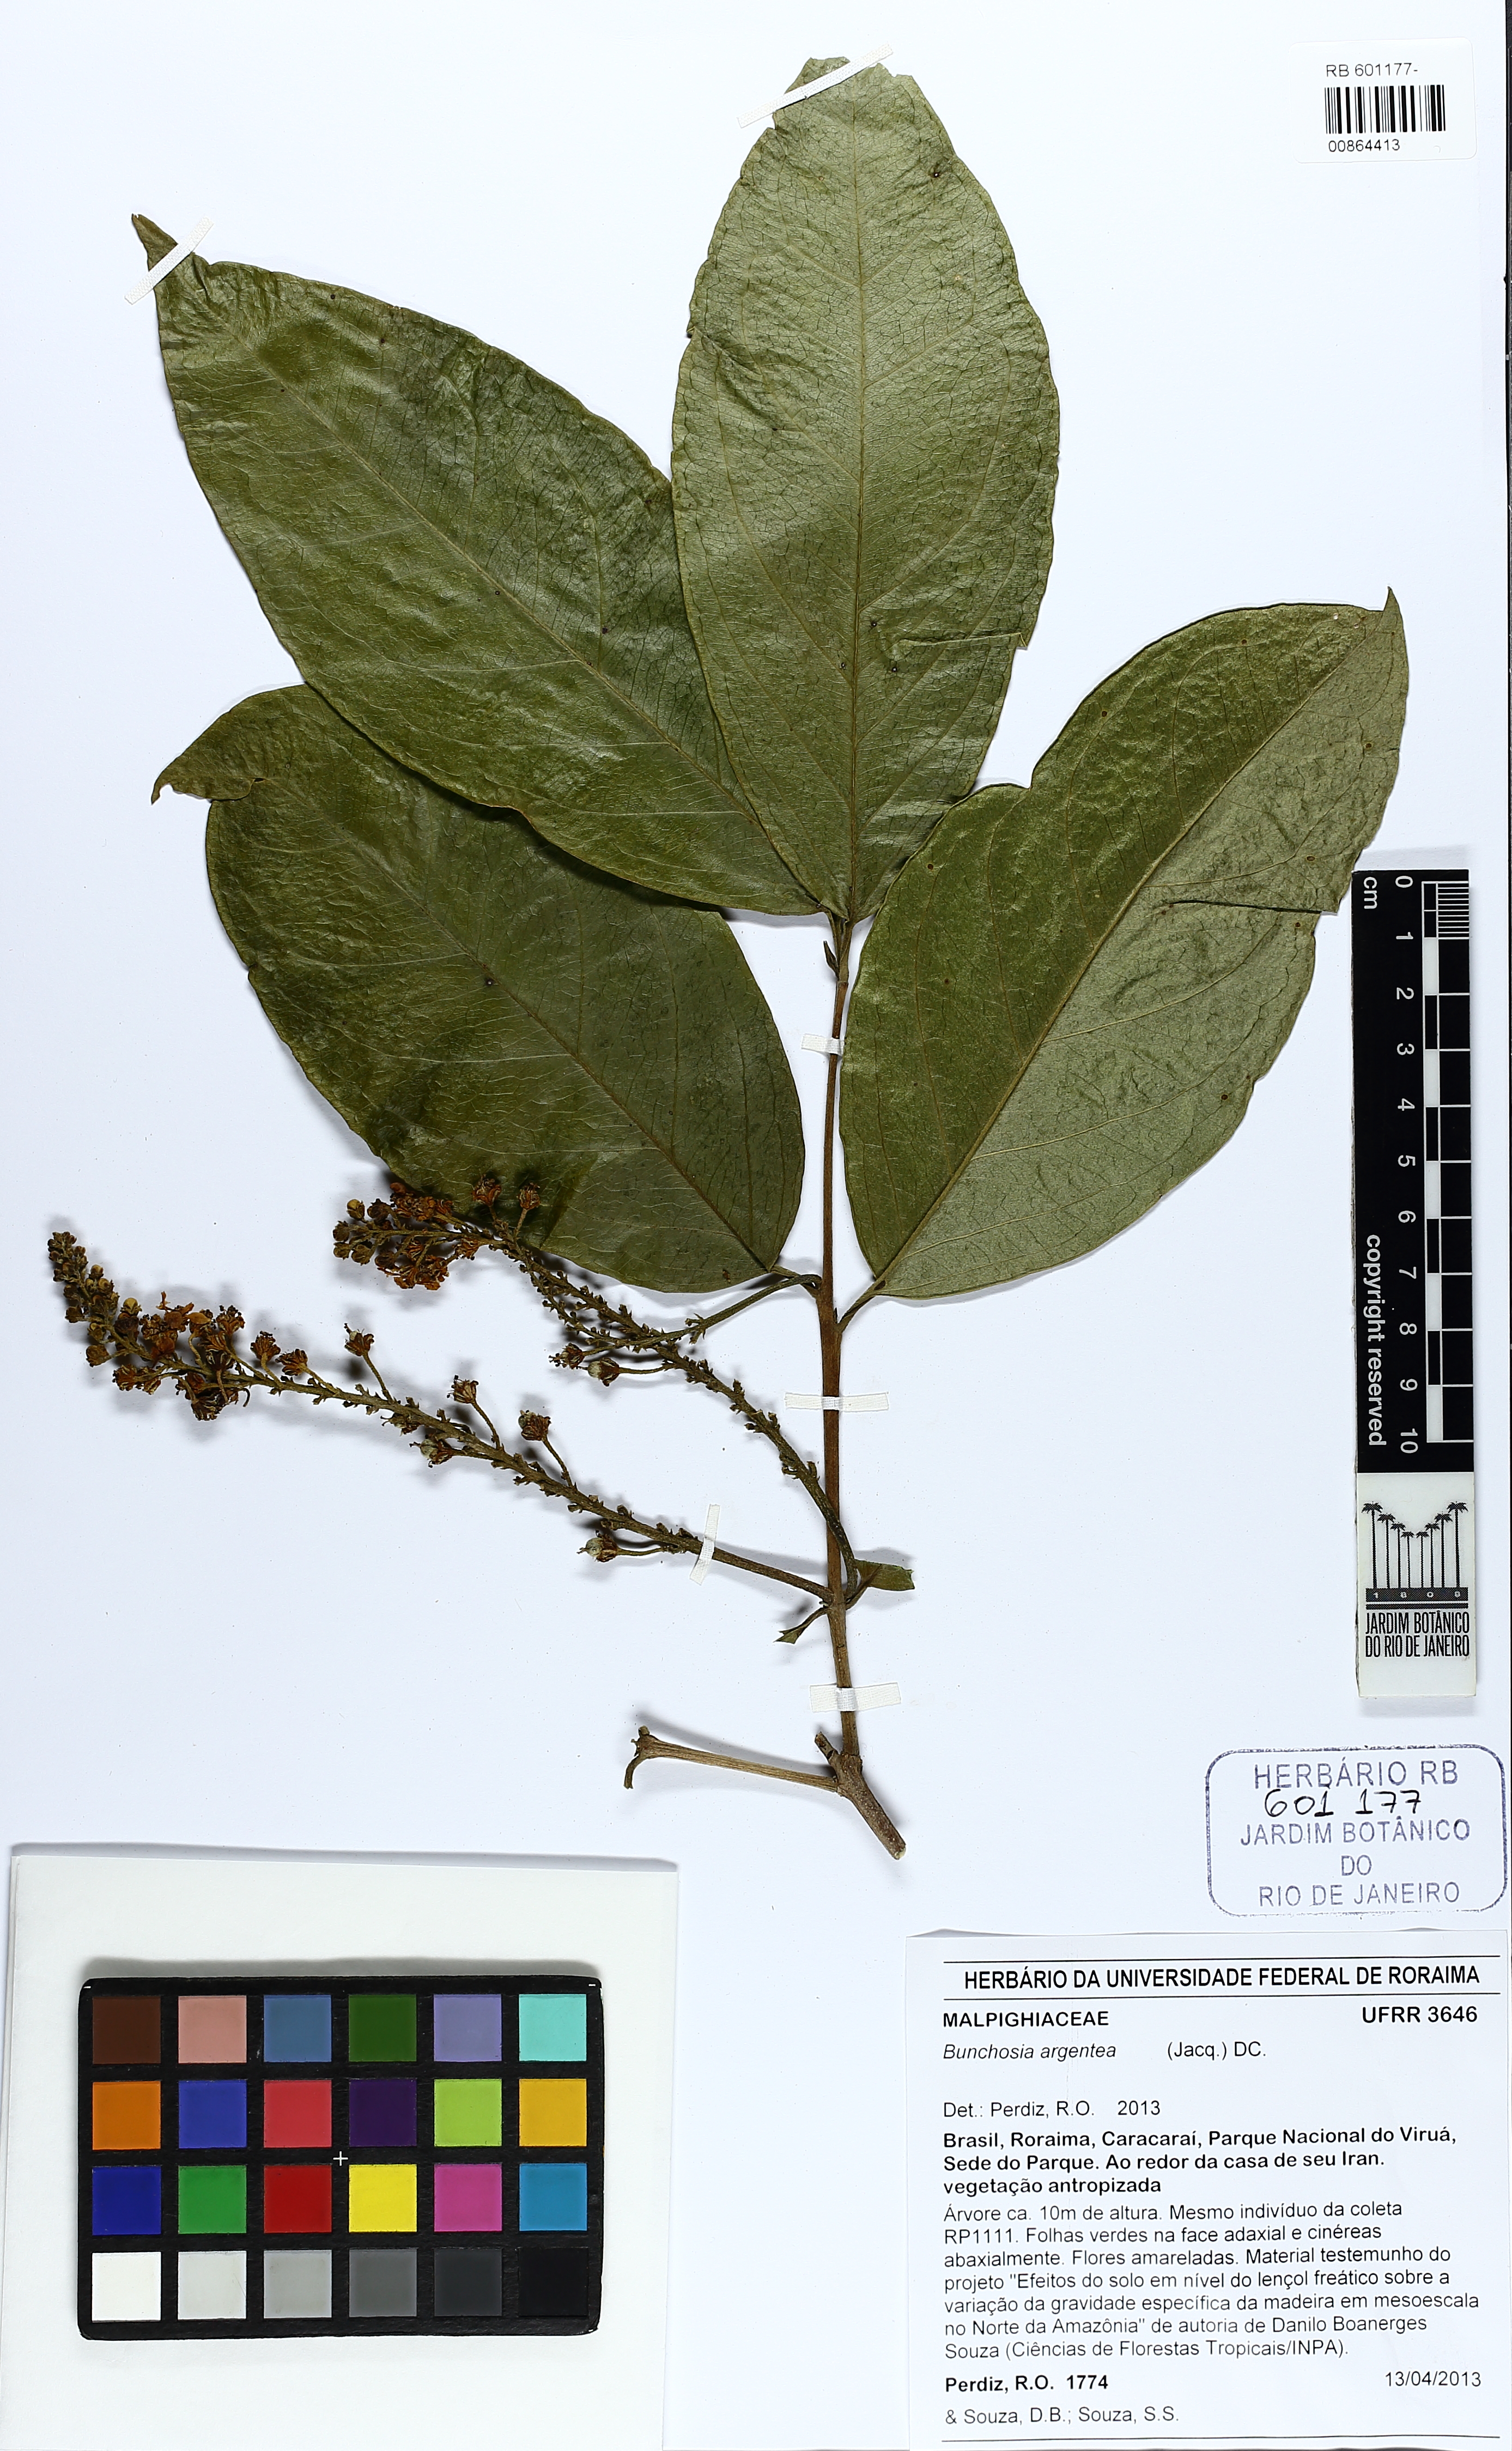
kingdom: Plantae
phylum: Tracheophyta
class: Magnoliopsida
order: Malpighiales
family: Malpighiaceae
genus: Bunchosia
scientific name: Bunchosia argentea
